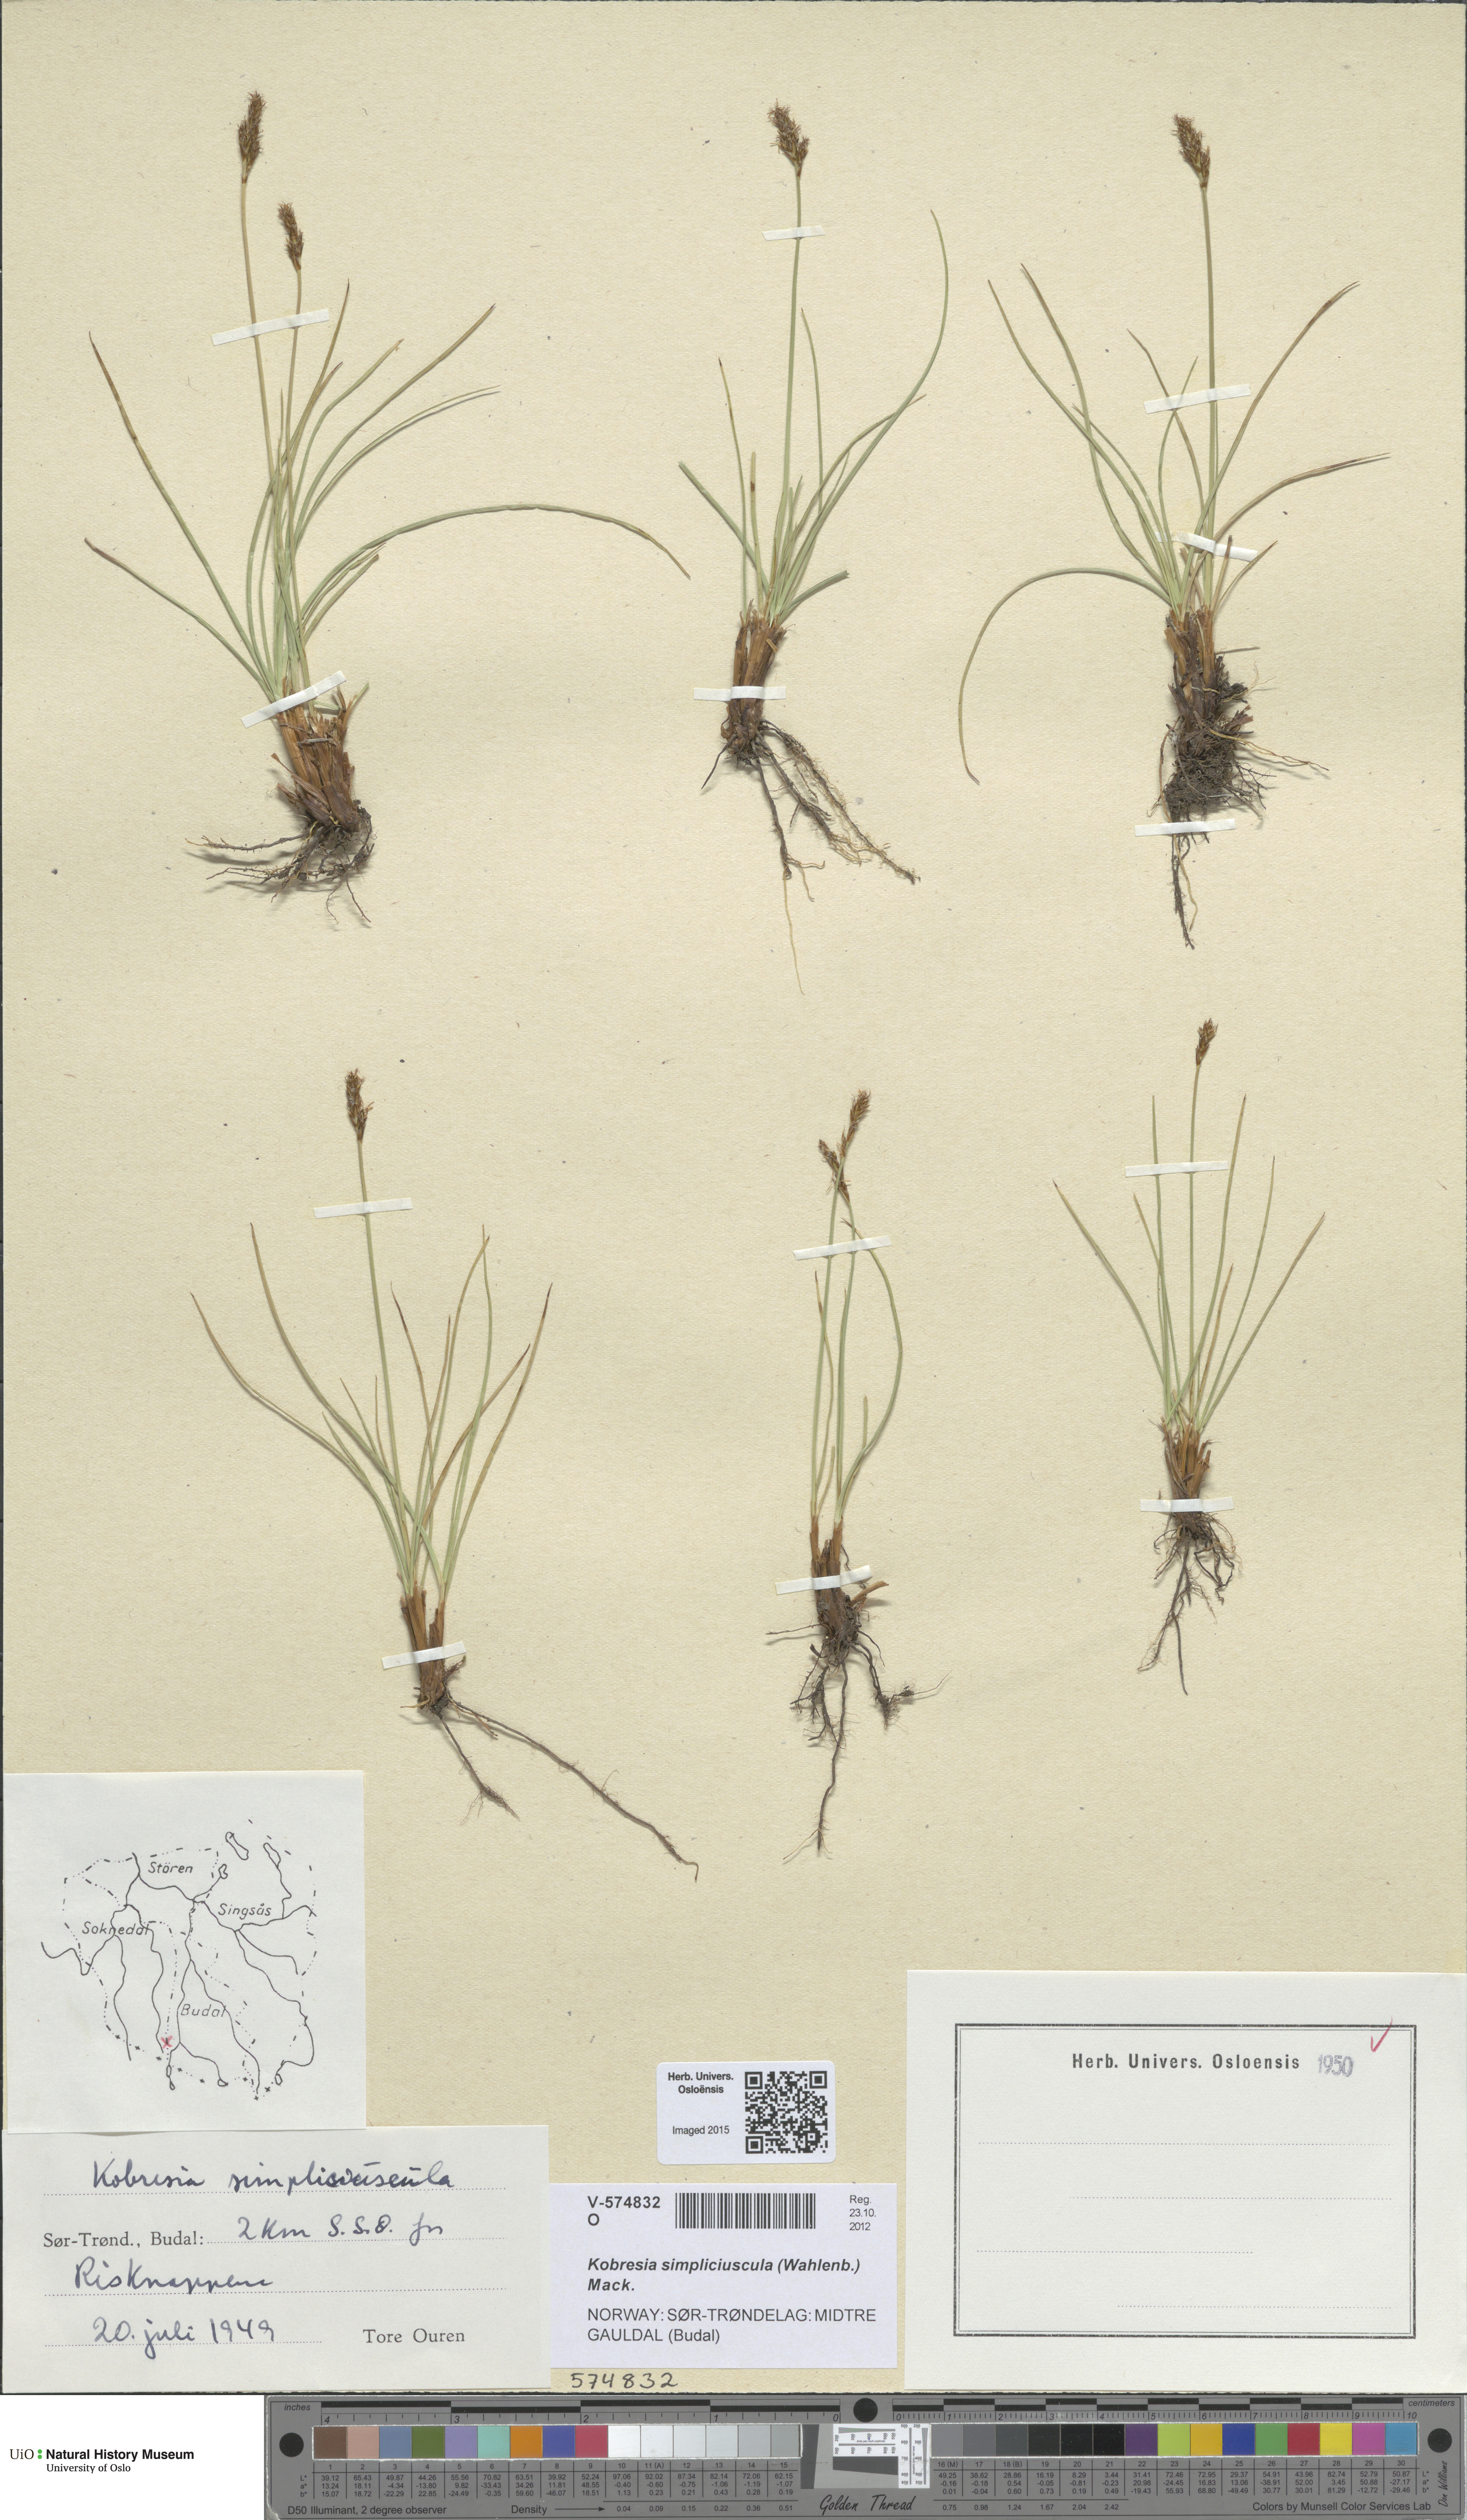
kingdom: Plantae
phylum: Tracheophyta
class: Liliopsida
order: Poales
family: Cyperaceae
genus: Carex
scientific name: Carex simpliciuscula
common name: Simple bog sedge
